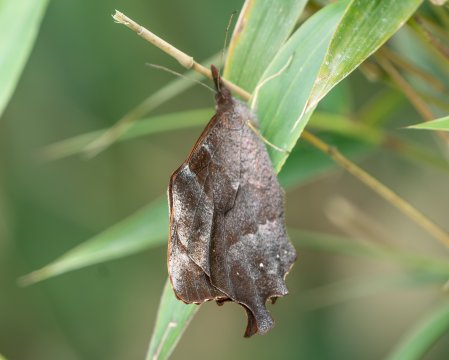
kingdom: Animalia
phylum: Arthropoda
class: Insecta
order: Lepidoptera
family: Nymphalidae
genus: Lasiophila
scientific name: Lasiophila circe
